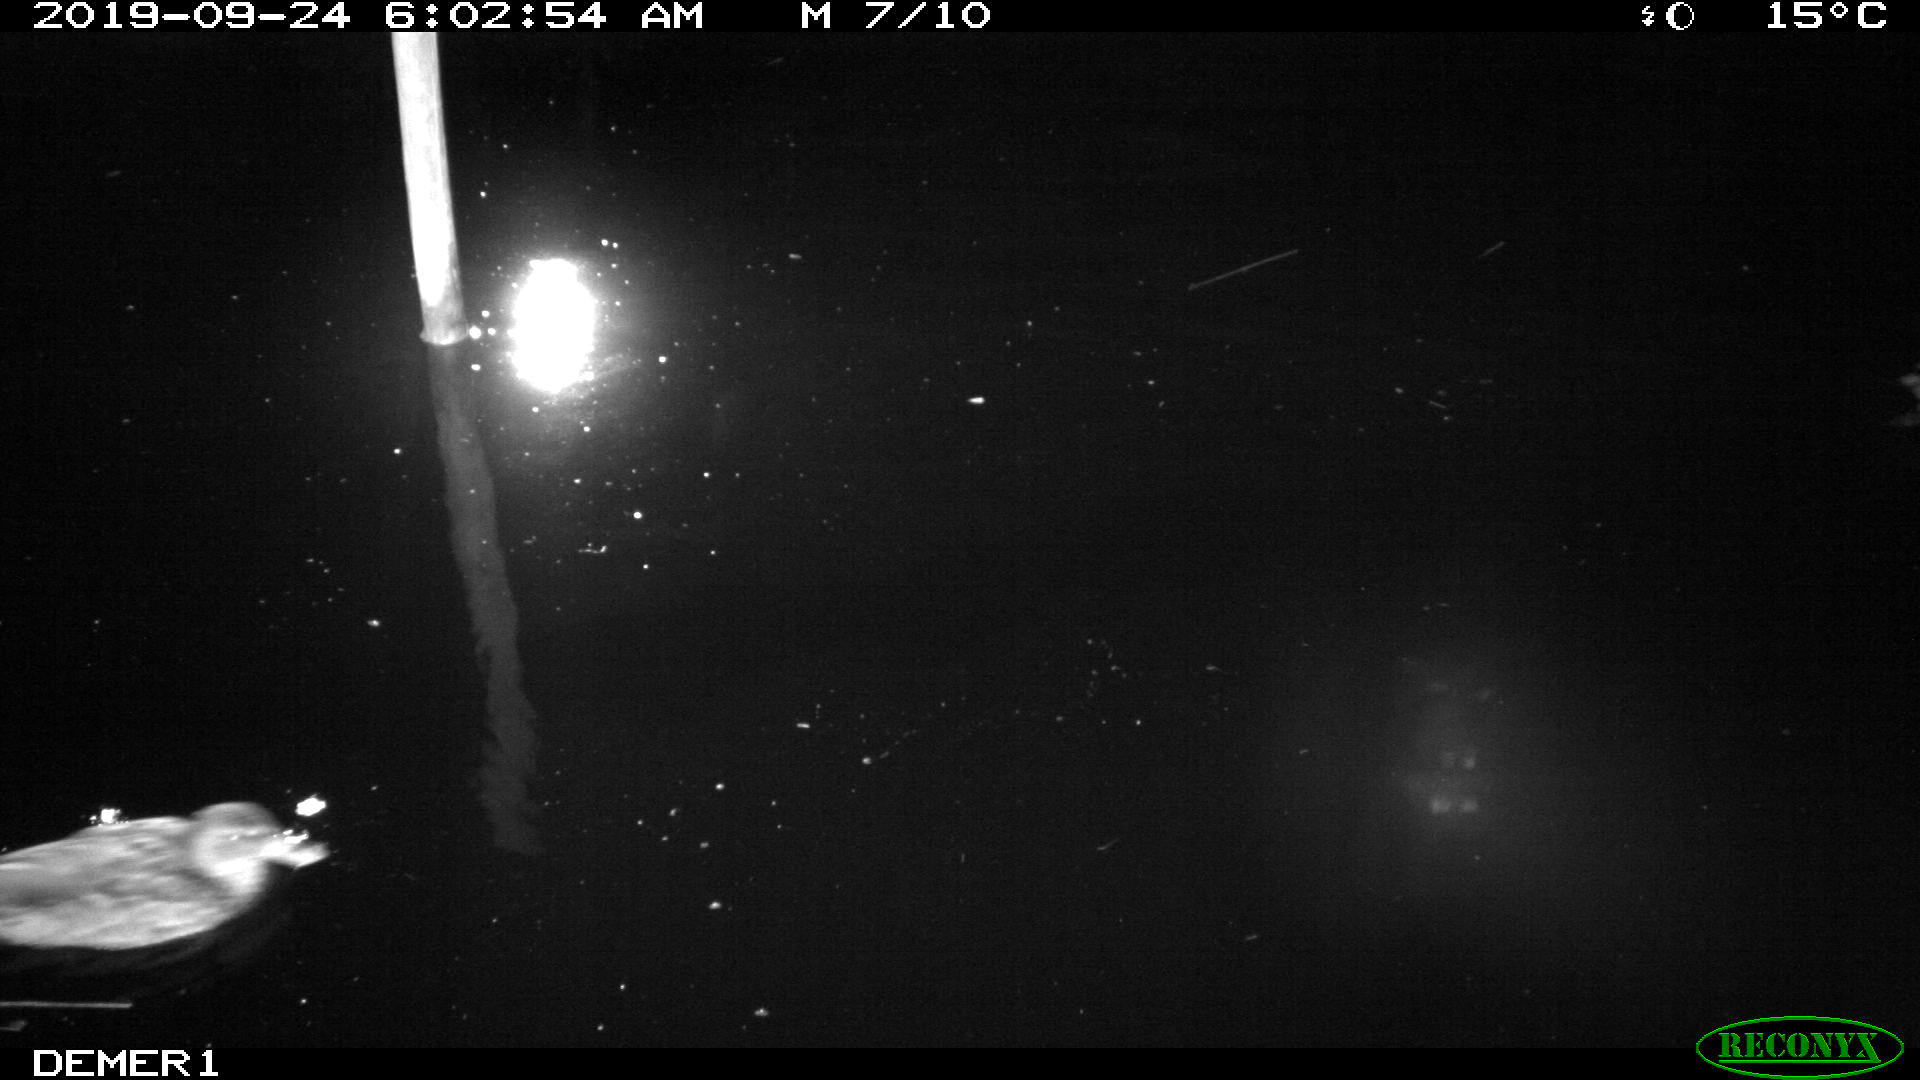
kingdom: Animalia
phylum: Chordata
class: Aves
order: Anseriformes
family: Anatidae
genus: Anas
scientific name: Anas platyrhynchos
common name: Mallard
